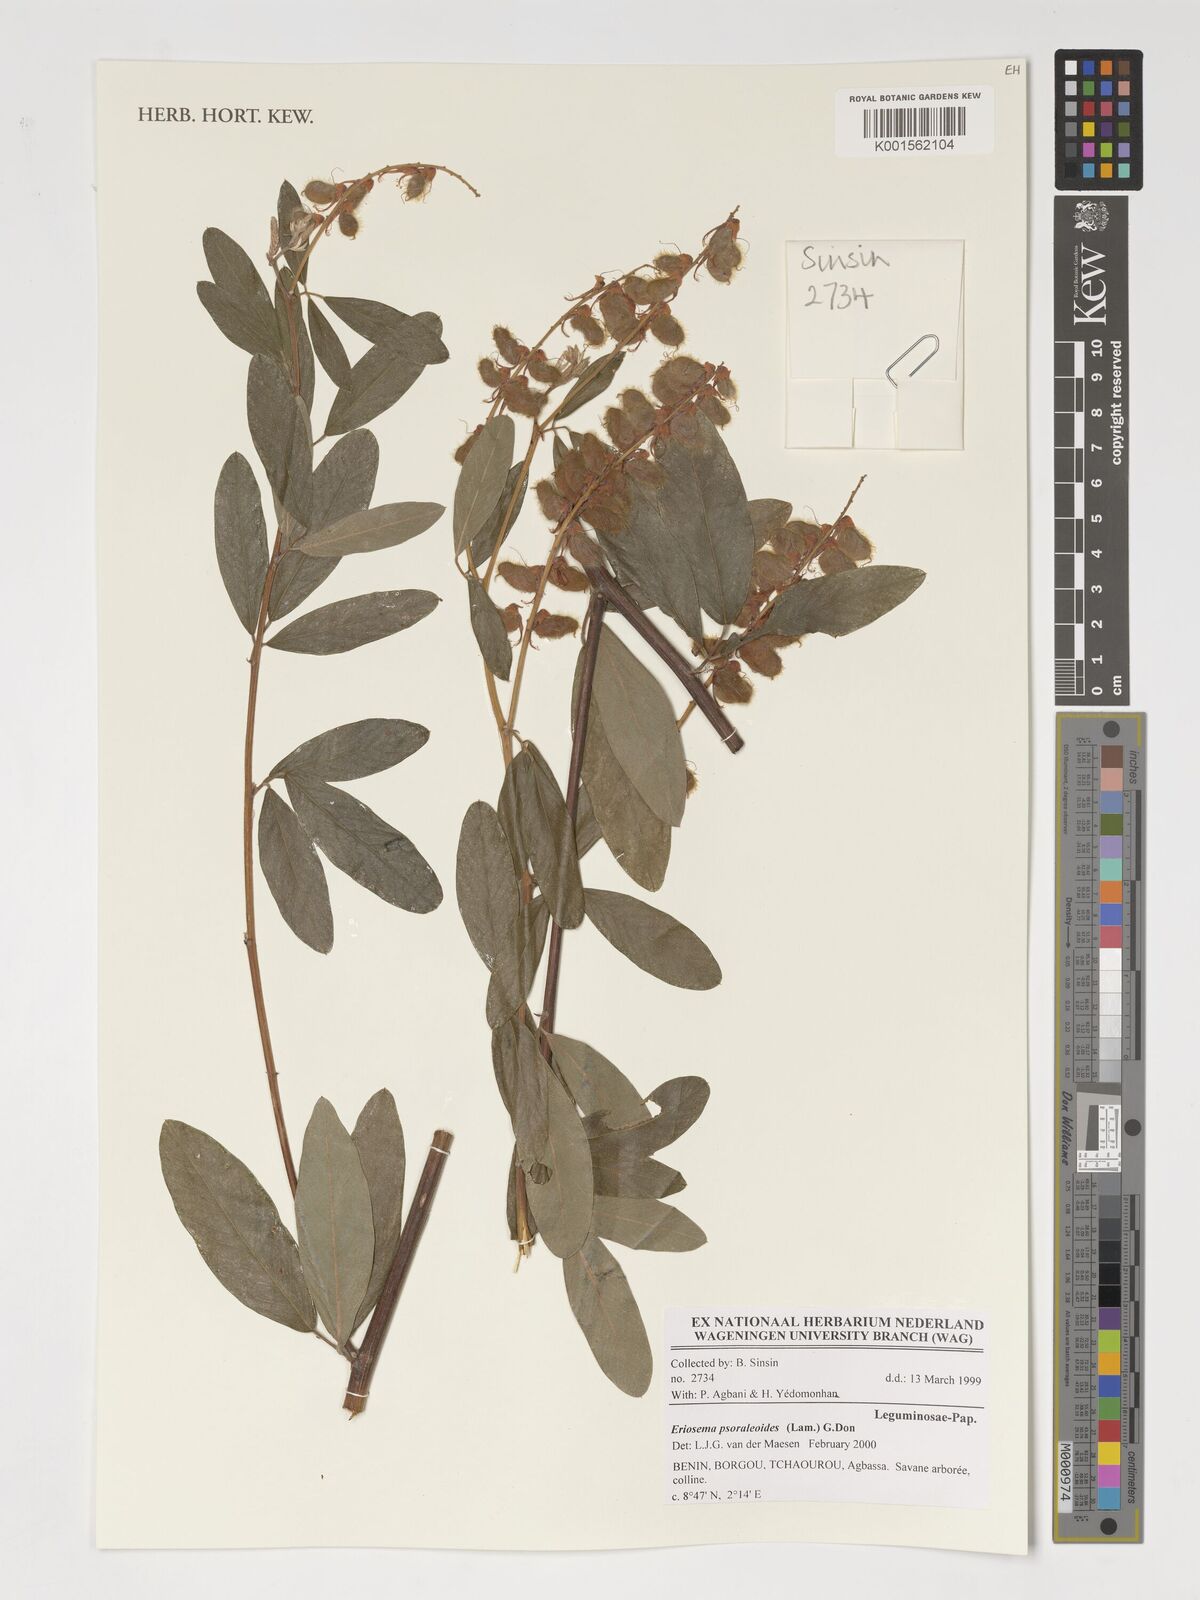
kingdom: Plantae
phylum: Tracheophyta
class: Magnoliopsida
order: Fabales
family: Fabaceae
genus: Eriosema
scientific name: Eriosema psoraleoides
